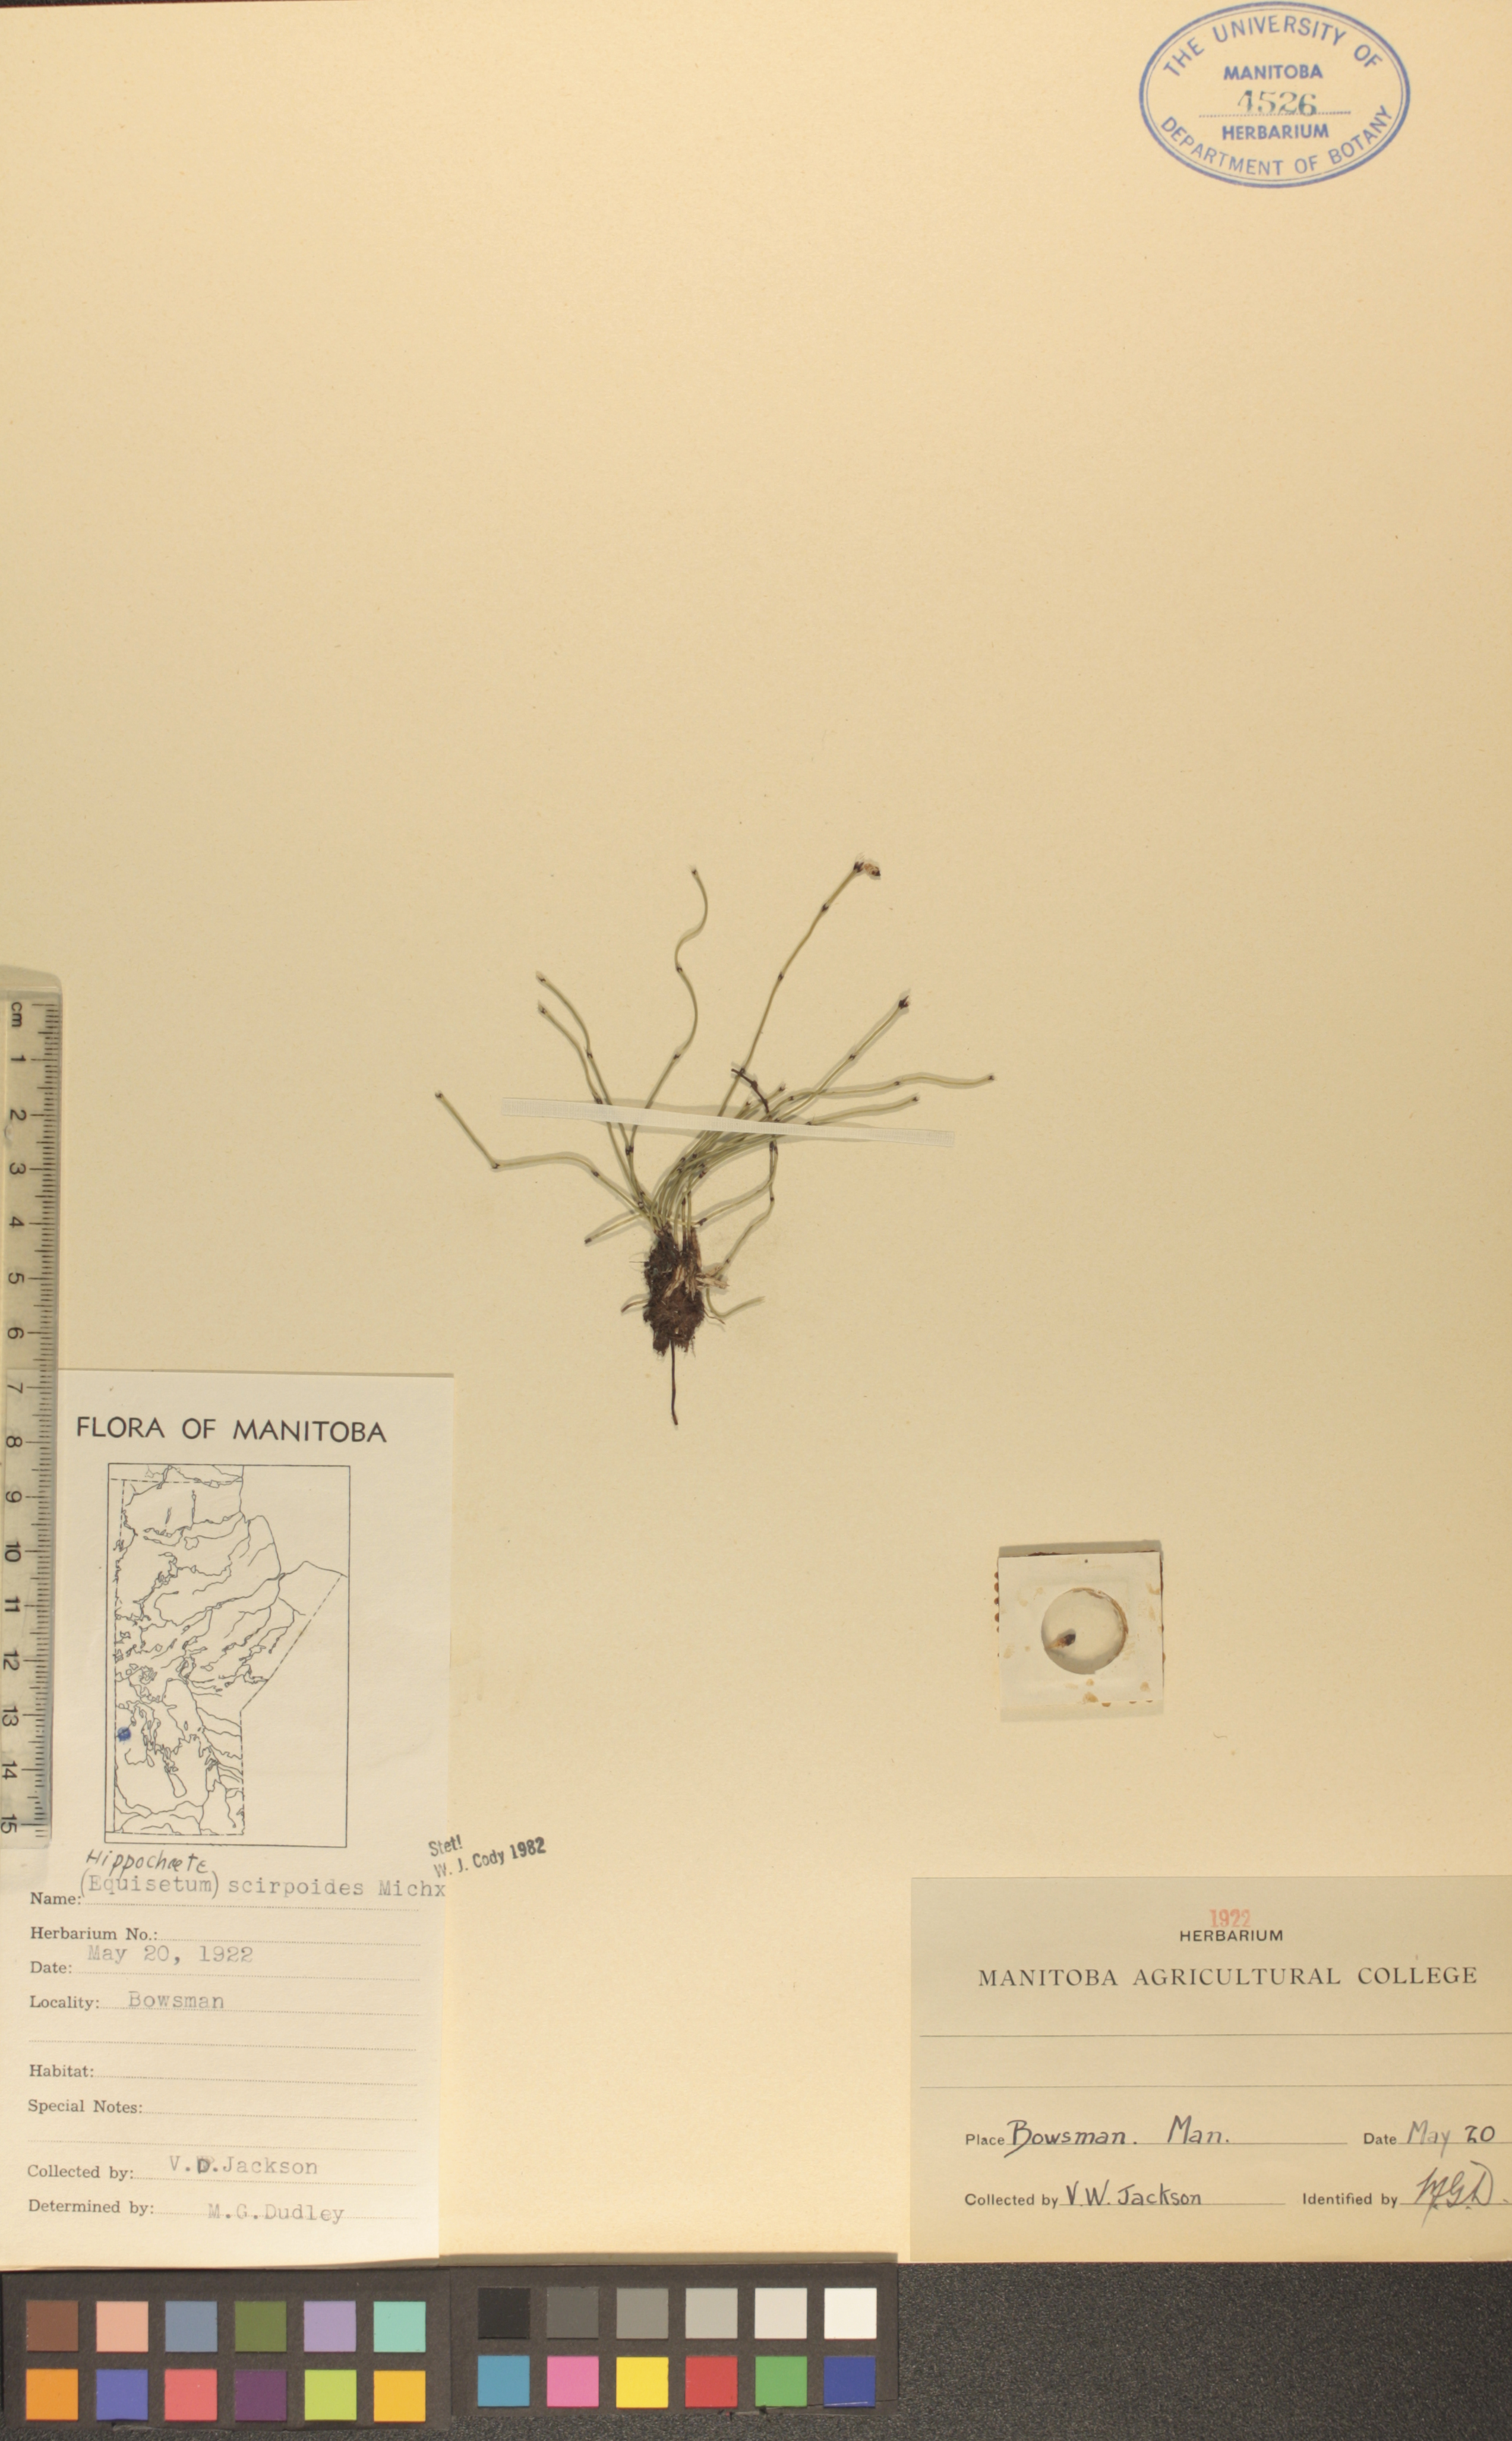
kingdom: Plantae
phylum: Tracheophyta
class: Polypodiopsida
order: Equisetales
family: Equisetaceae
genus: Equisetum
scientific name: Equisetum scirpoides
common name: Delicate horsetail
